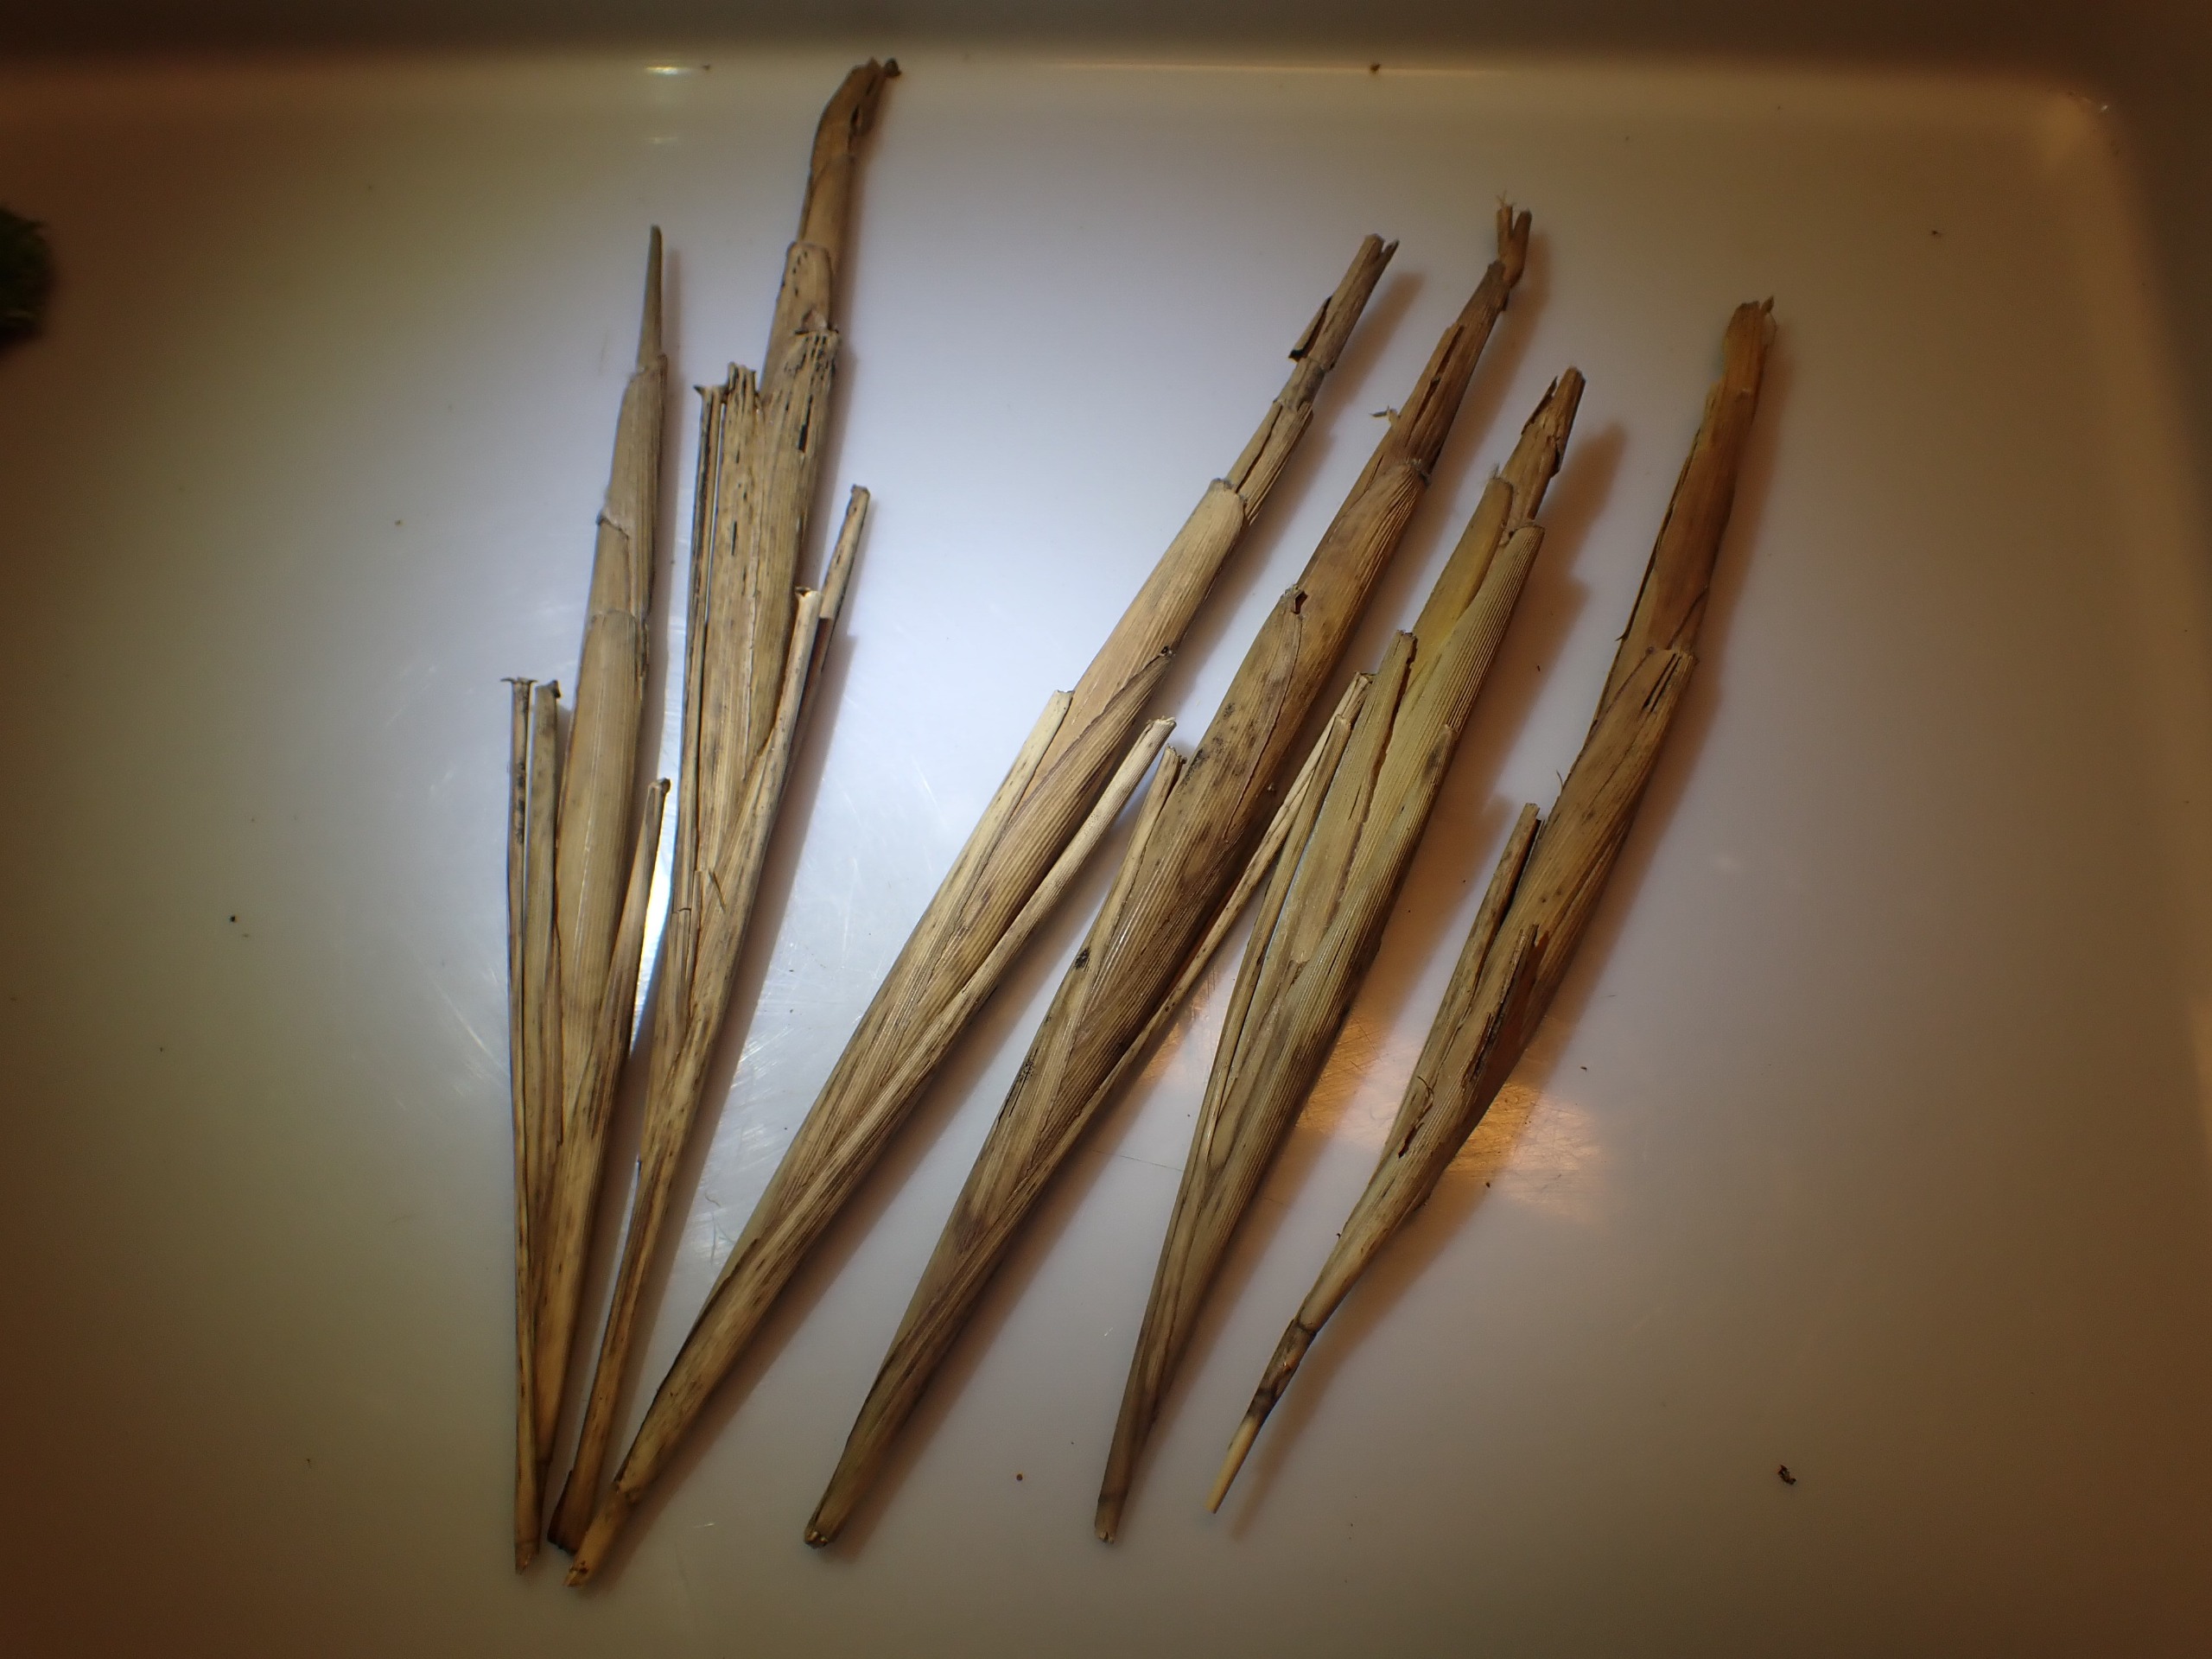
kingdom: Animalia
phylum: Arthropoda
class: Insecta
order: Diptera
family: Chloropidae
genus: Lipara
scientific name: Lipara lucens
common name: Stor cigargalle-fritflue
